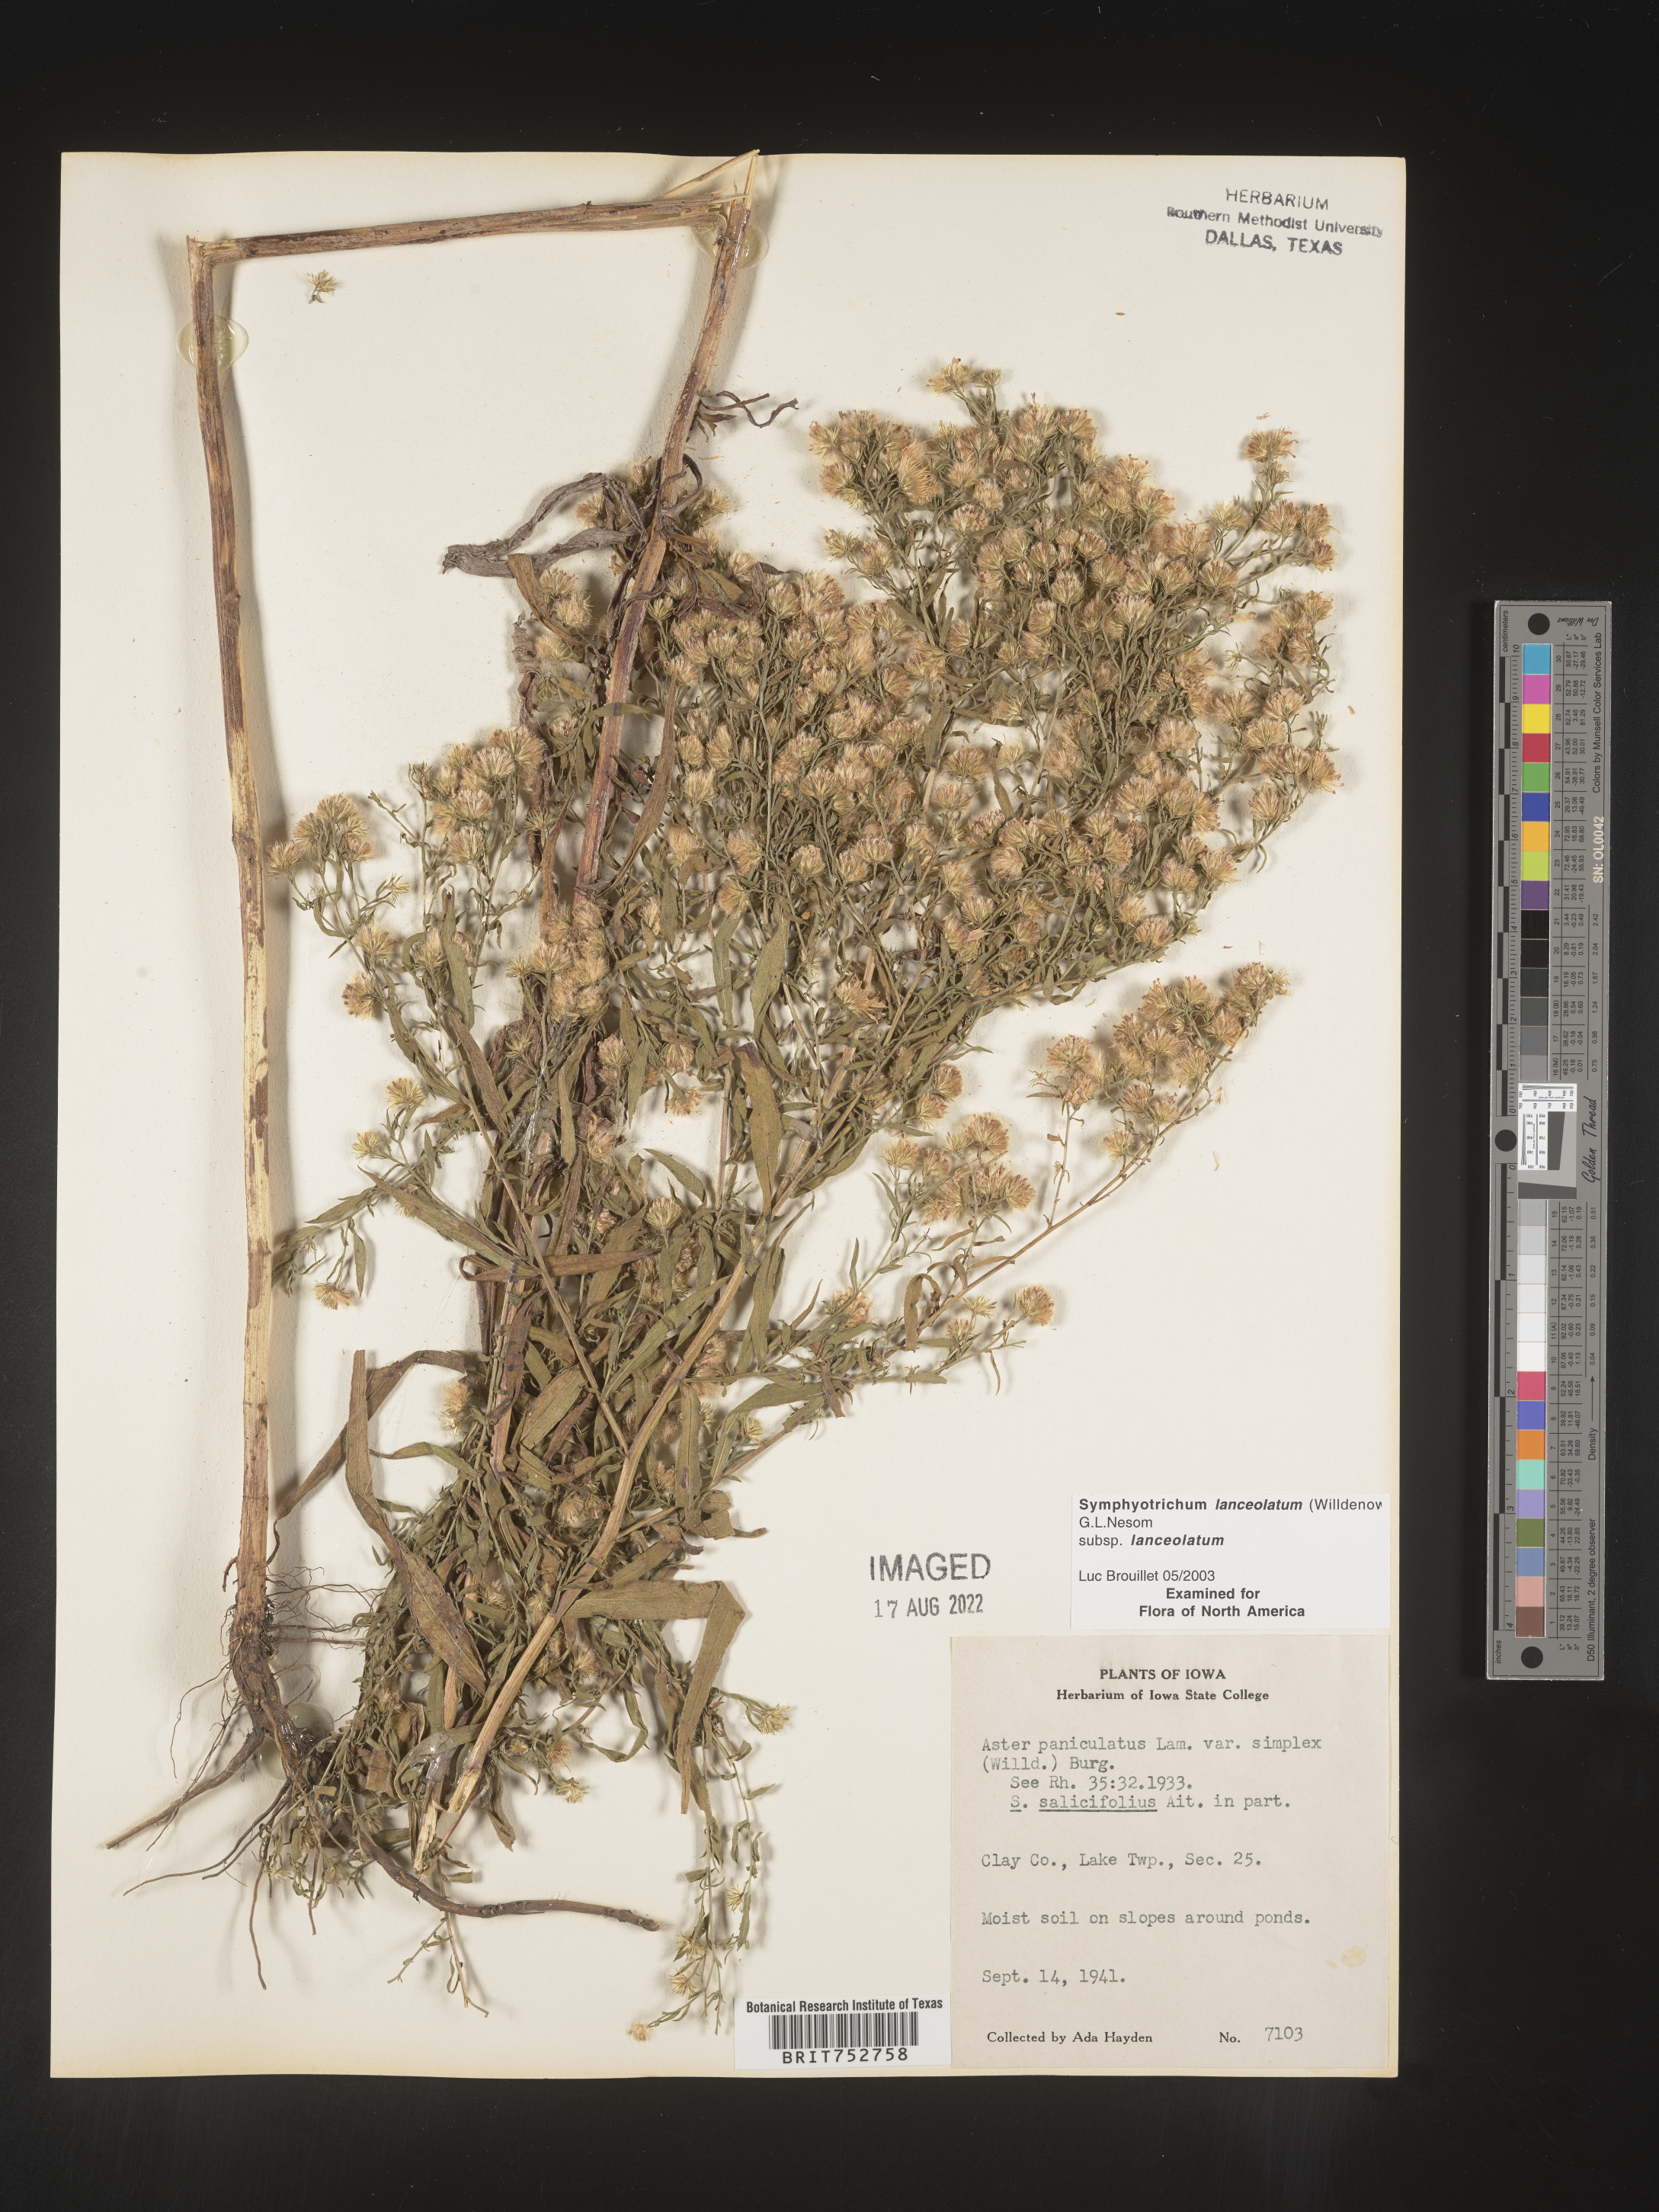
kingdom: Plantae
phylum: Tracheophyta
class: Magnoliopsida
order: Asterales
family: Asteraceae
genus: Symphyotrichum
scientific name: Symphyotrichum lanceolatum
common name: Panicled aster
